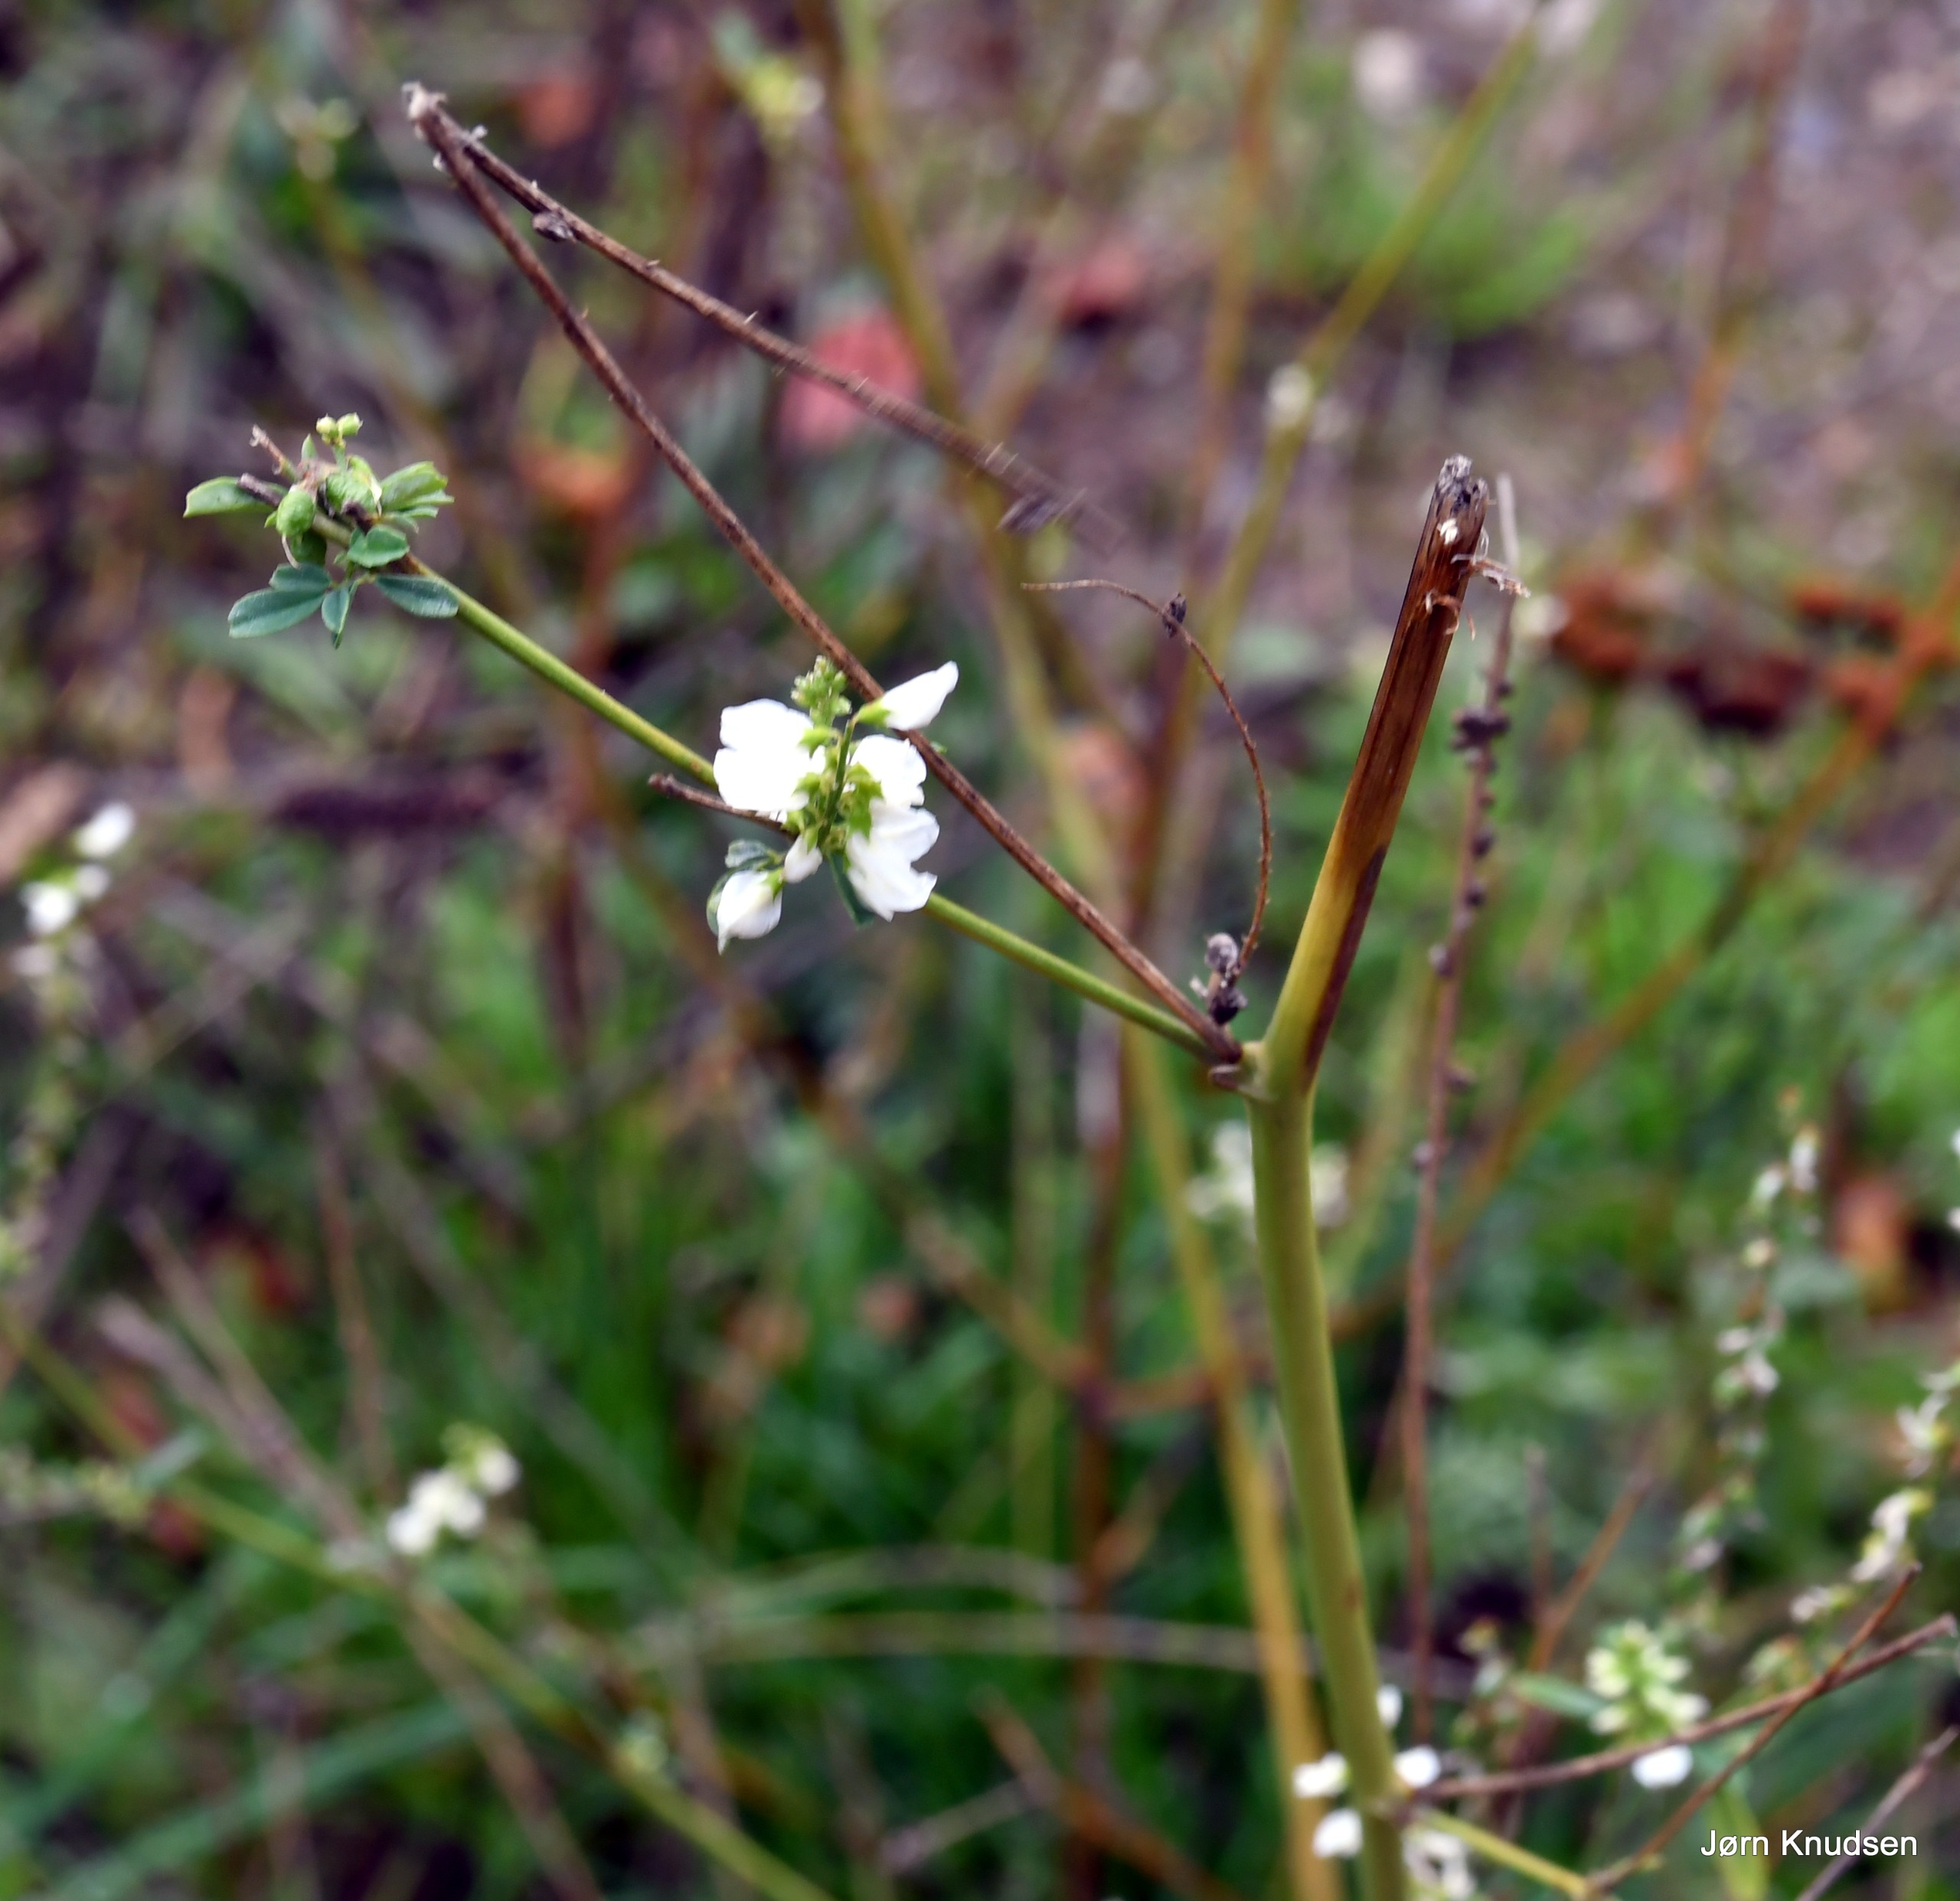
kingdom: Plantae
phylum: Tracheophyta
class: Magnoliopsida
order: Fabales
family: Fabaceae
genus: Melilotus
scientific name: Melilotus albus
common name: Hvid stenkløver
